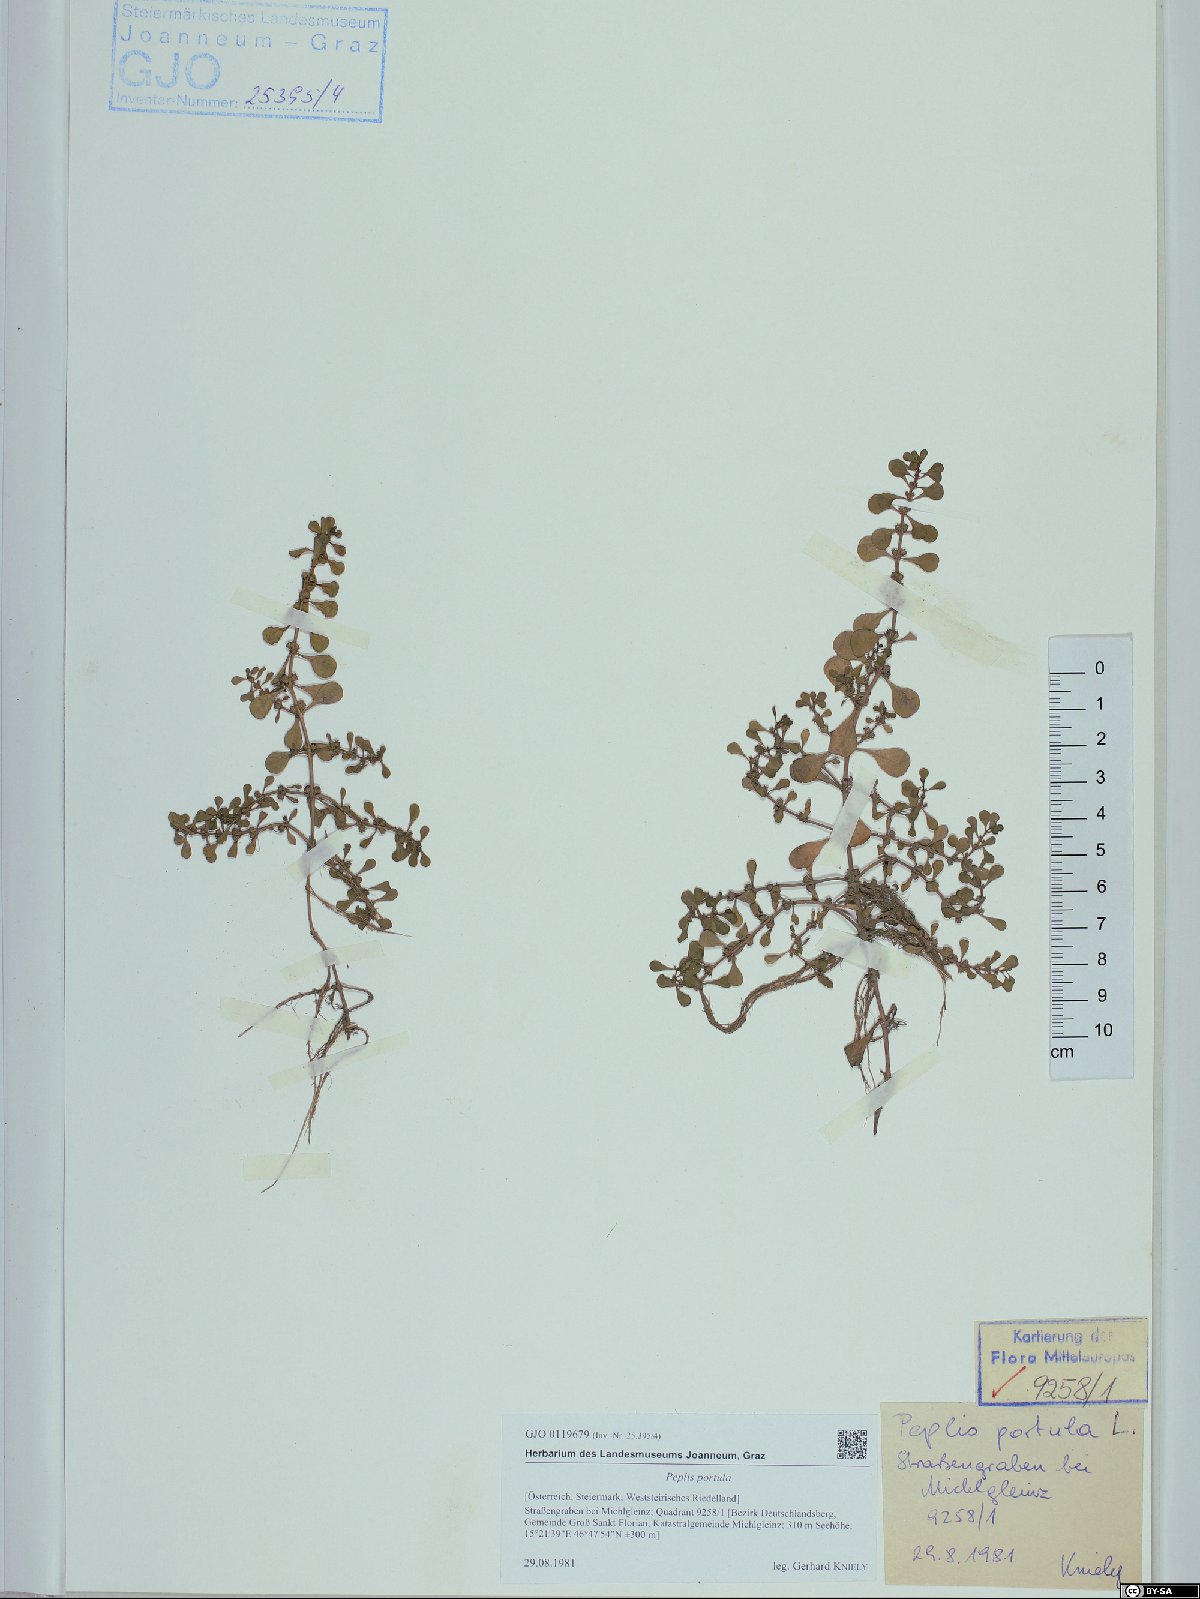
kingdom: Plantae
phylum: Tracheophyta
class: Magnoliopsida
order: Myrtales
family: Lythraceae
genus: Lythrum
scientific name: Lythrum portula
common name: Water purslane
